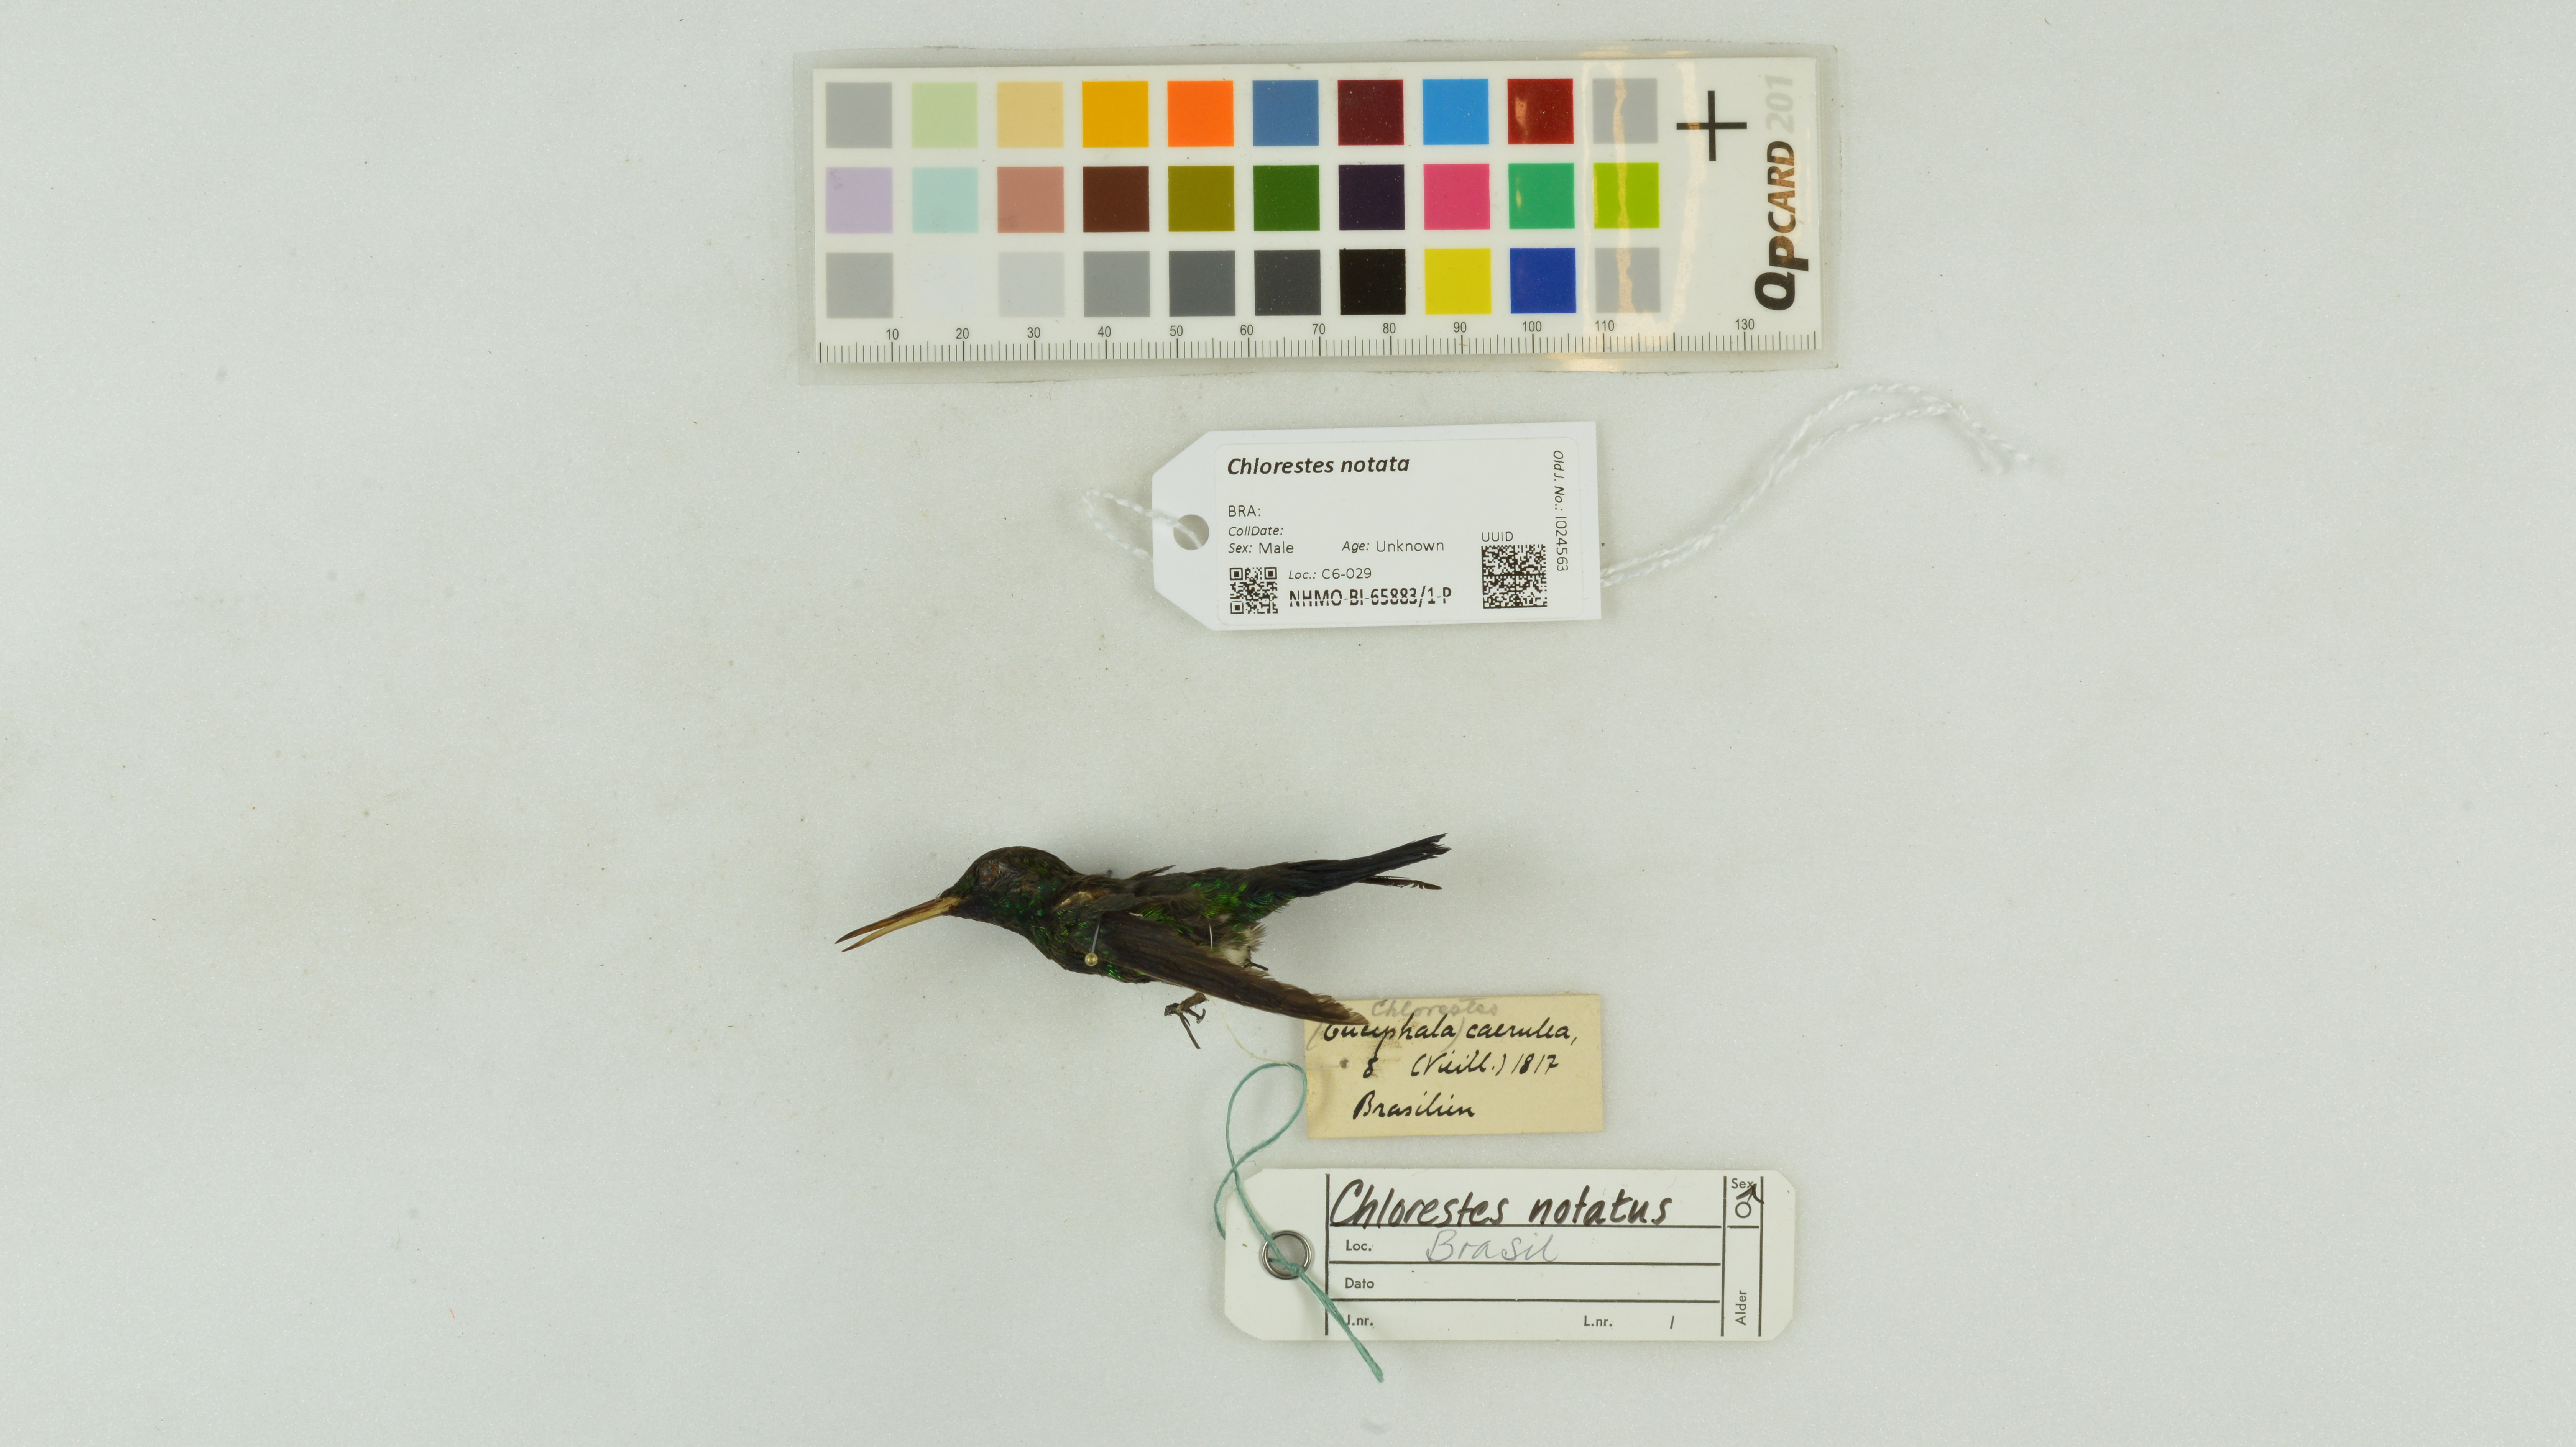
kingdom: Animalia
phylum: Chordata
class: Aves
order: Apodiformes
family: Trochilidae
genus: Chlorestes
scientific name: Chlorestes notata
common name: Blue-chinned sapphire
